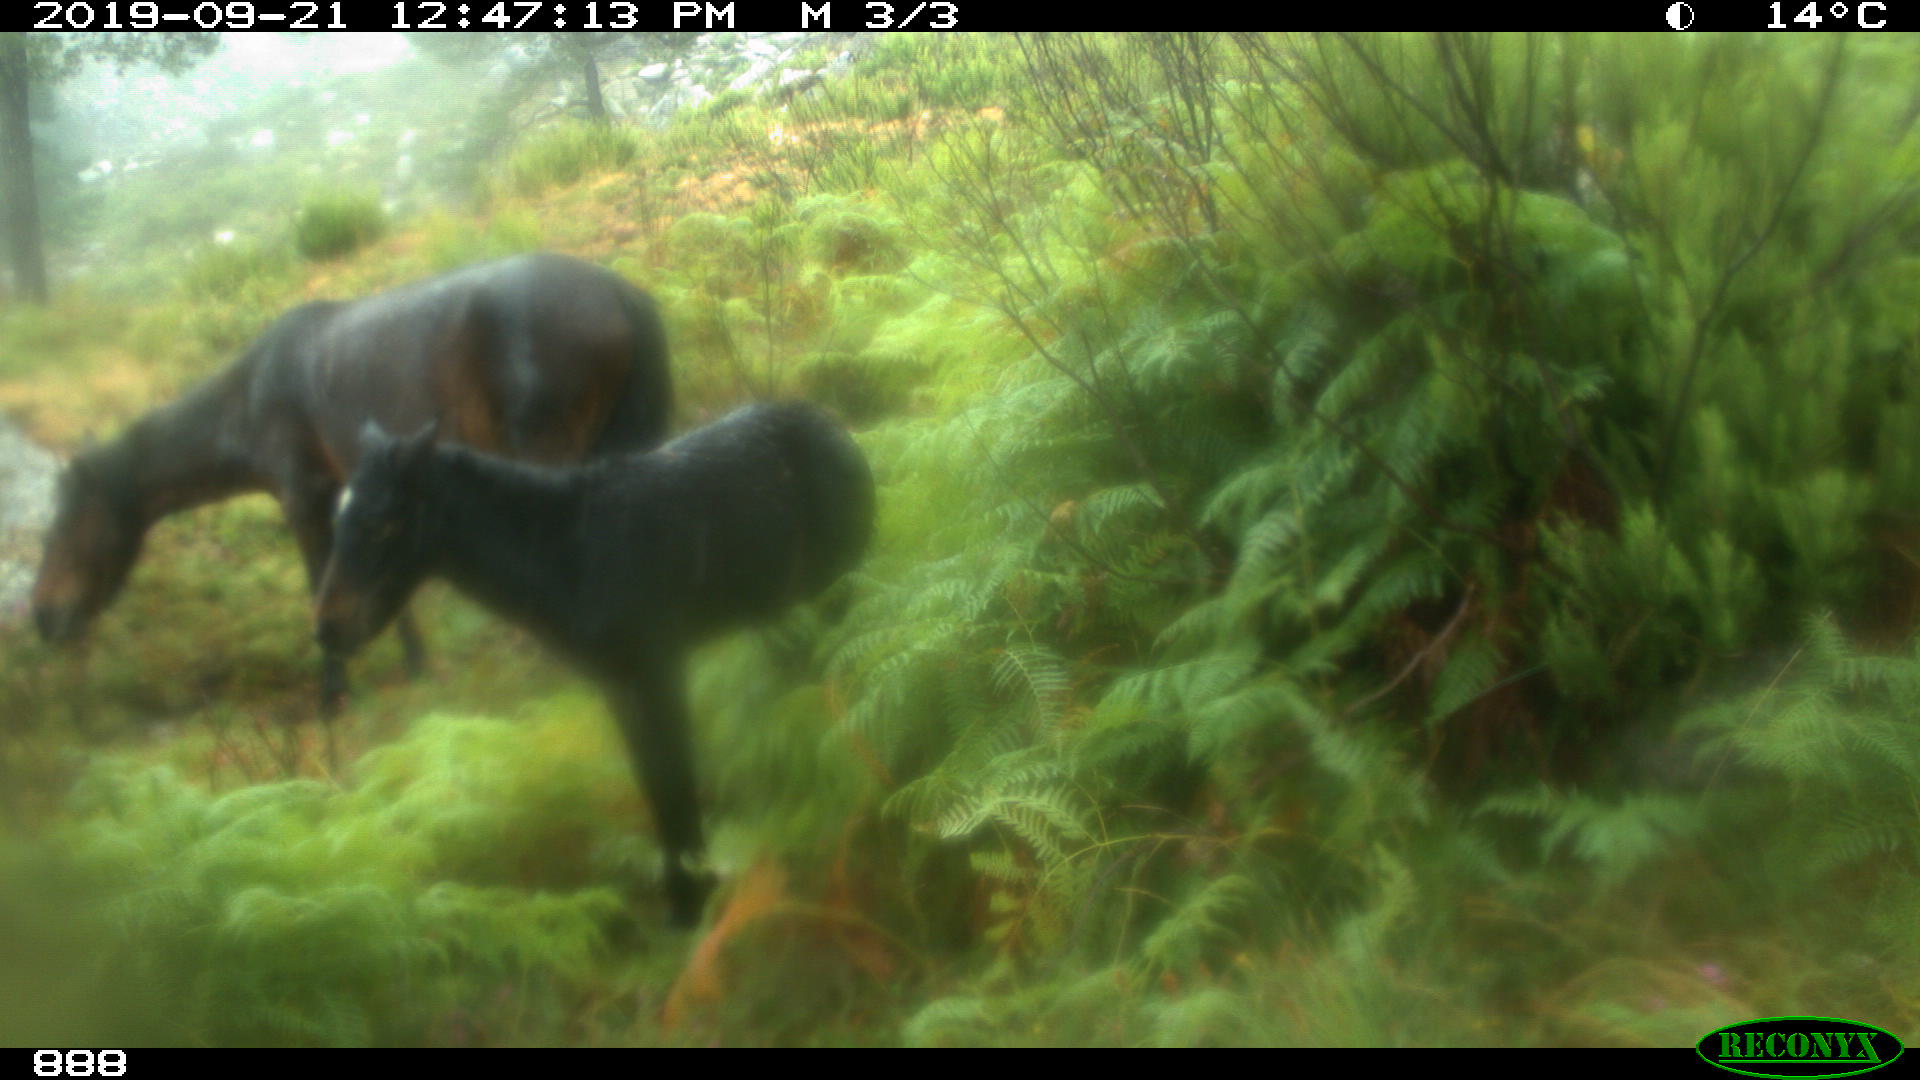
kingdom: Animalia
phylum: Chordata
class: Mammalia
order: Perissodactyla
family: Equidae
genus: Equus
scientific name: Equus caballus
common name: Horse
